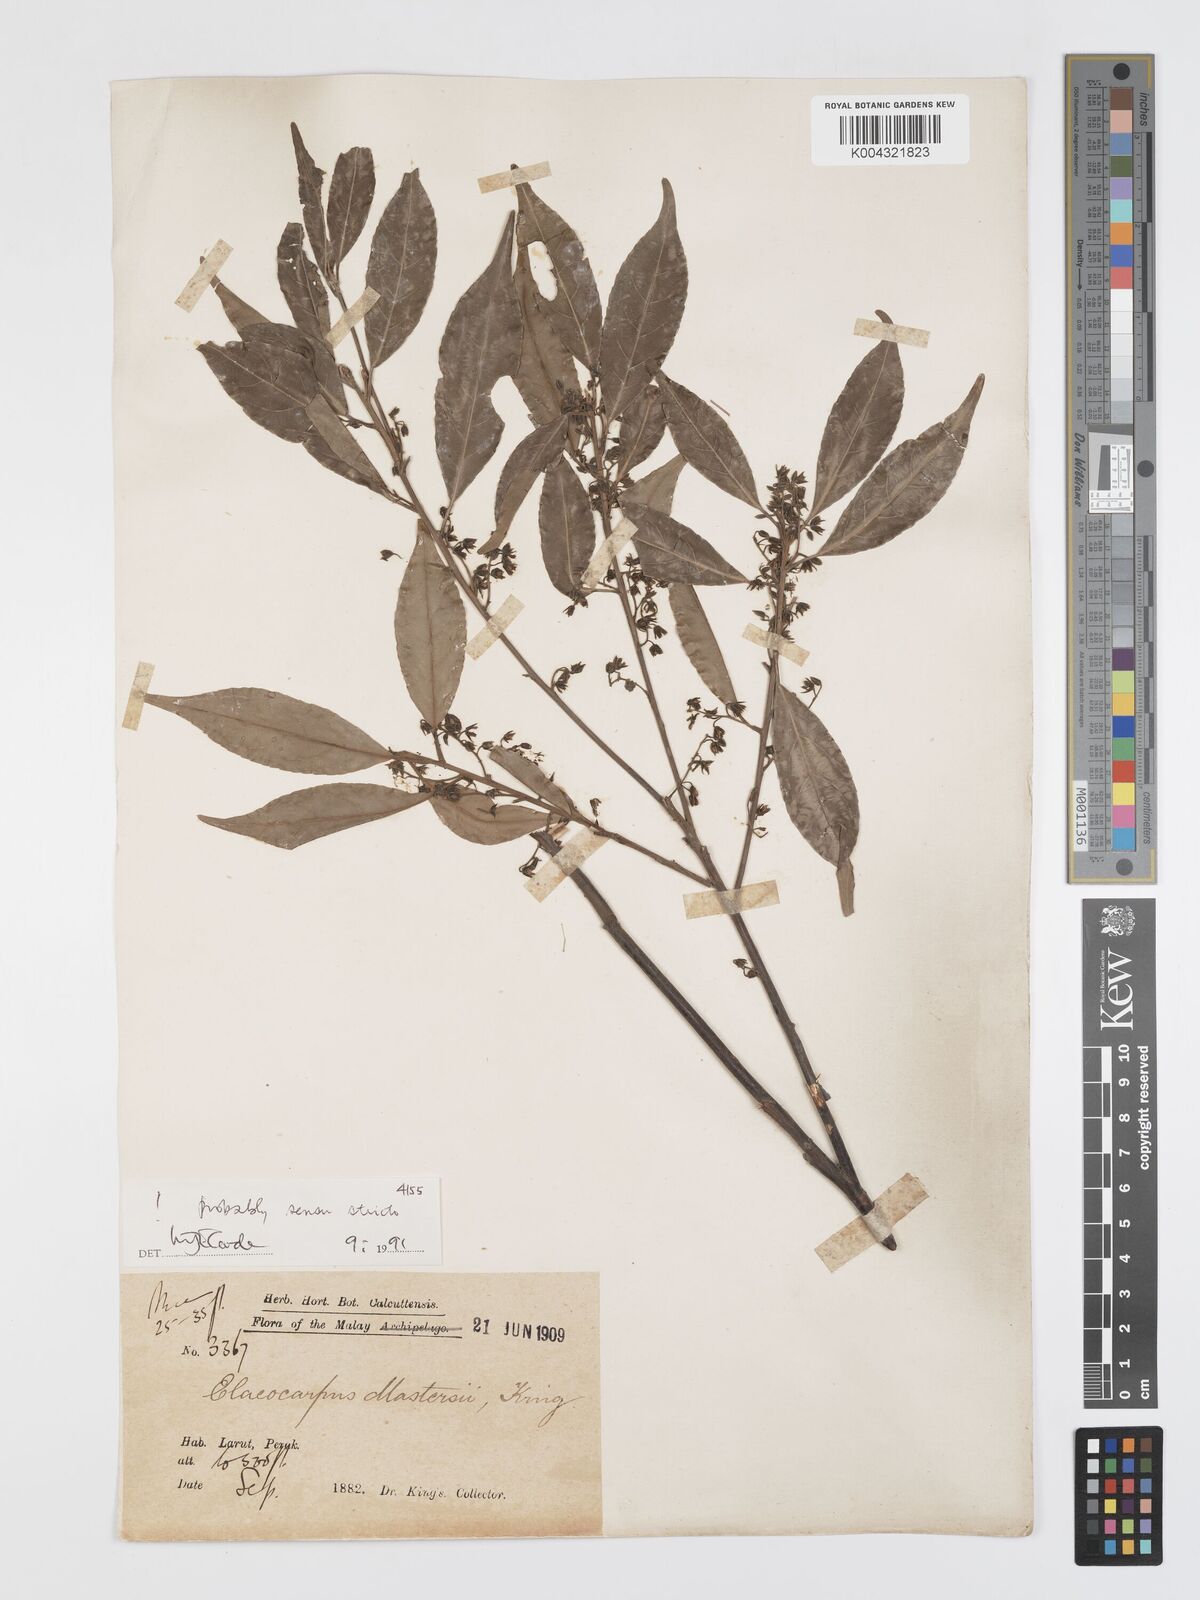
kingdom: Plantae
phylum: Tracheophyta
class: Magnoliopsida
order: Oxalidales
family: Elaeocarpaceae
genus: Elaeocarpus
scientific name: Elaeocarpus mastersii
